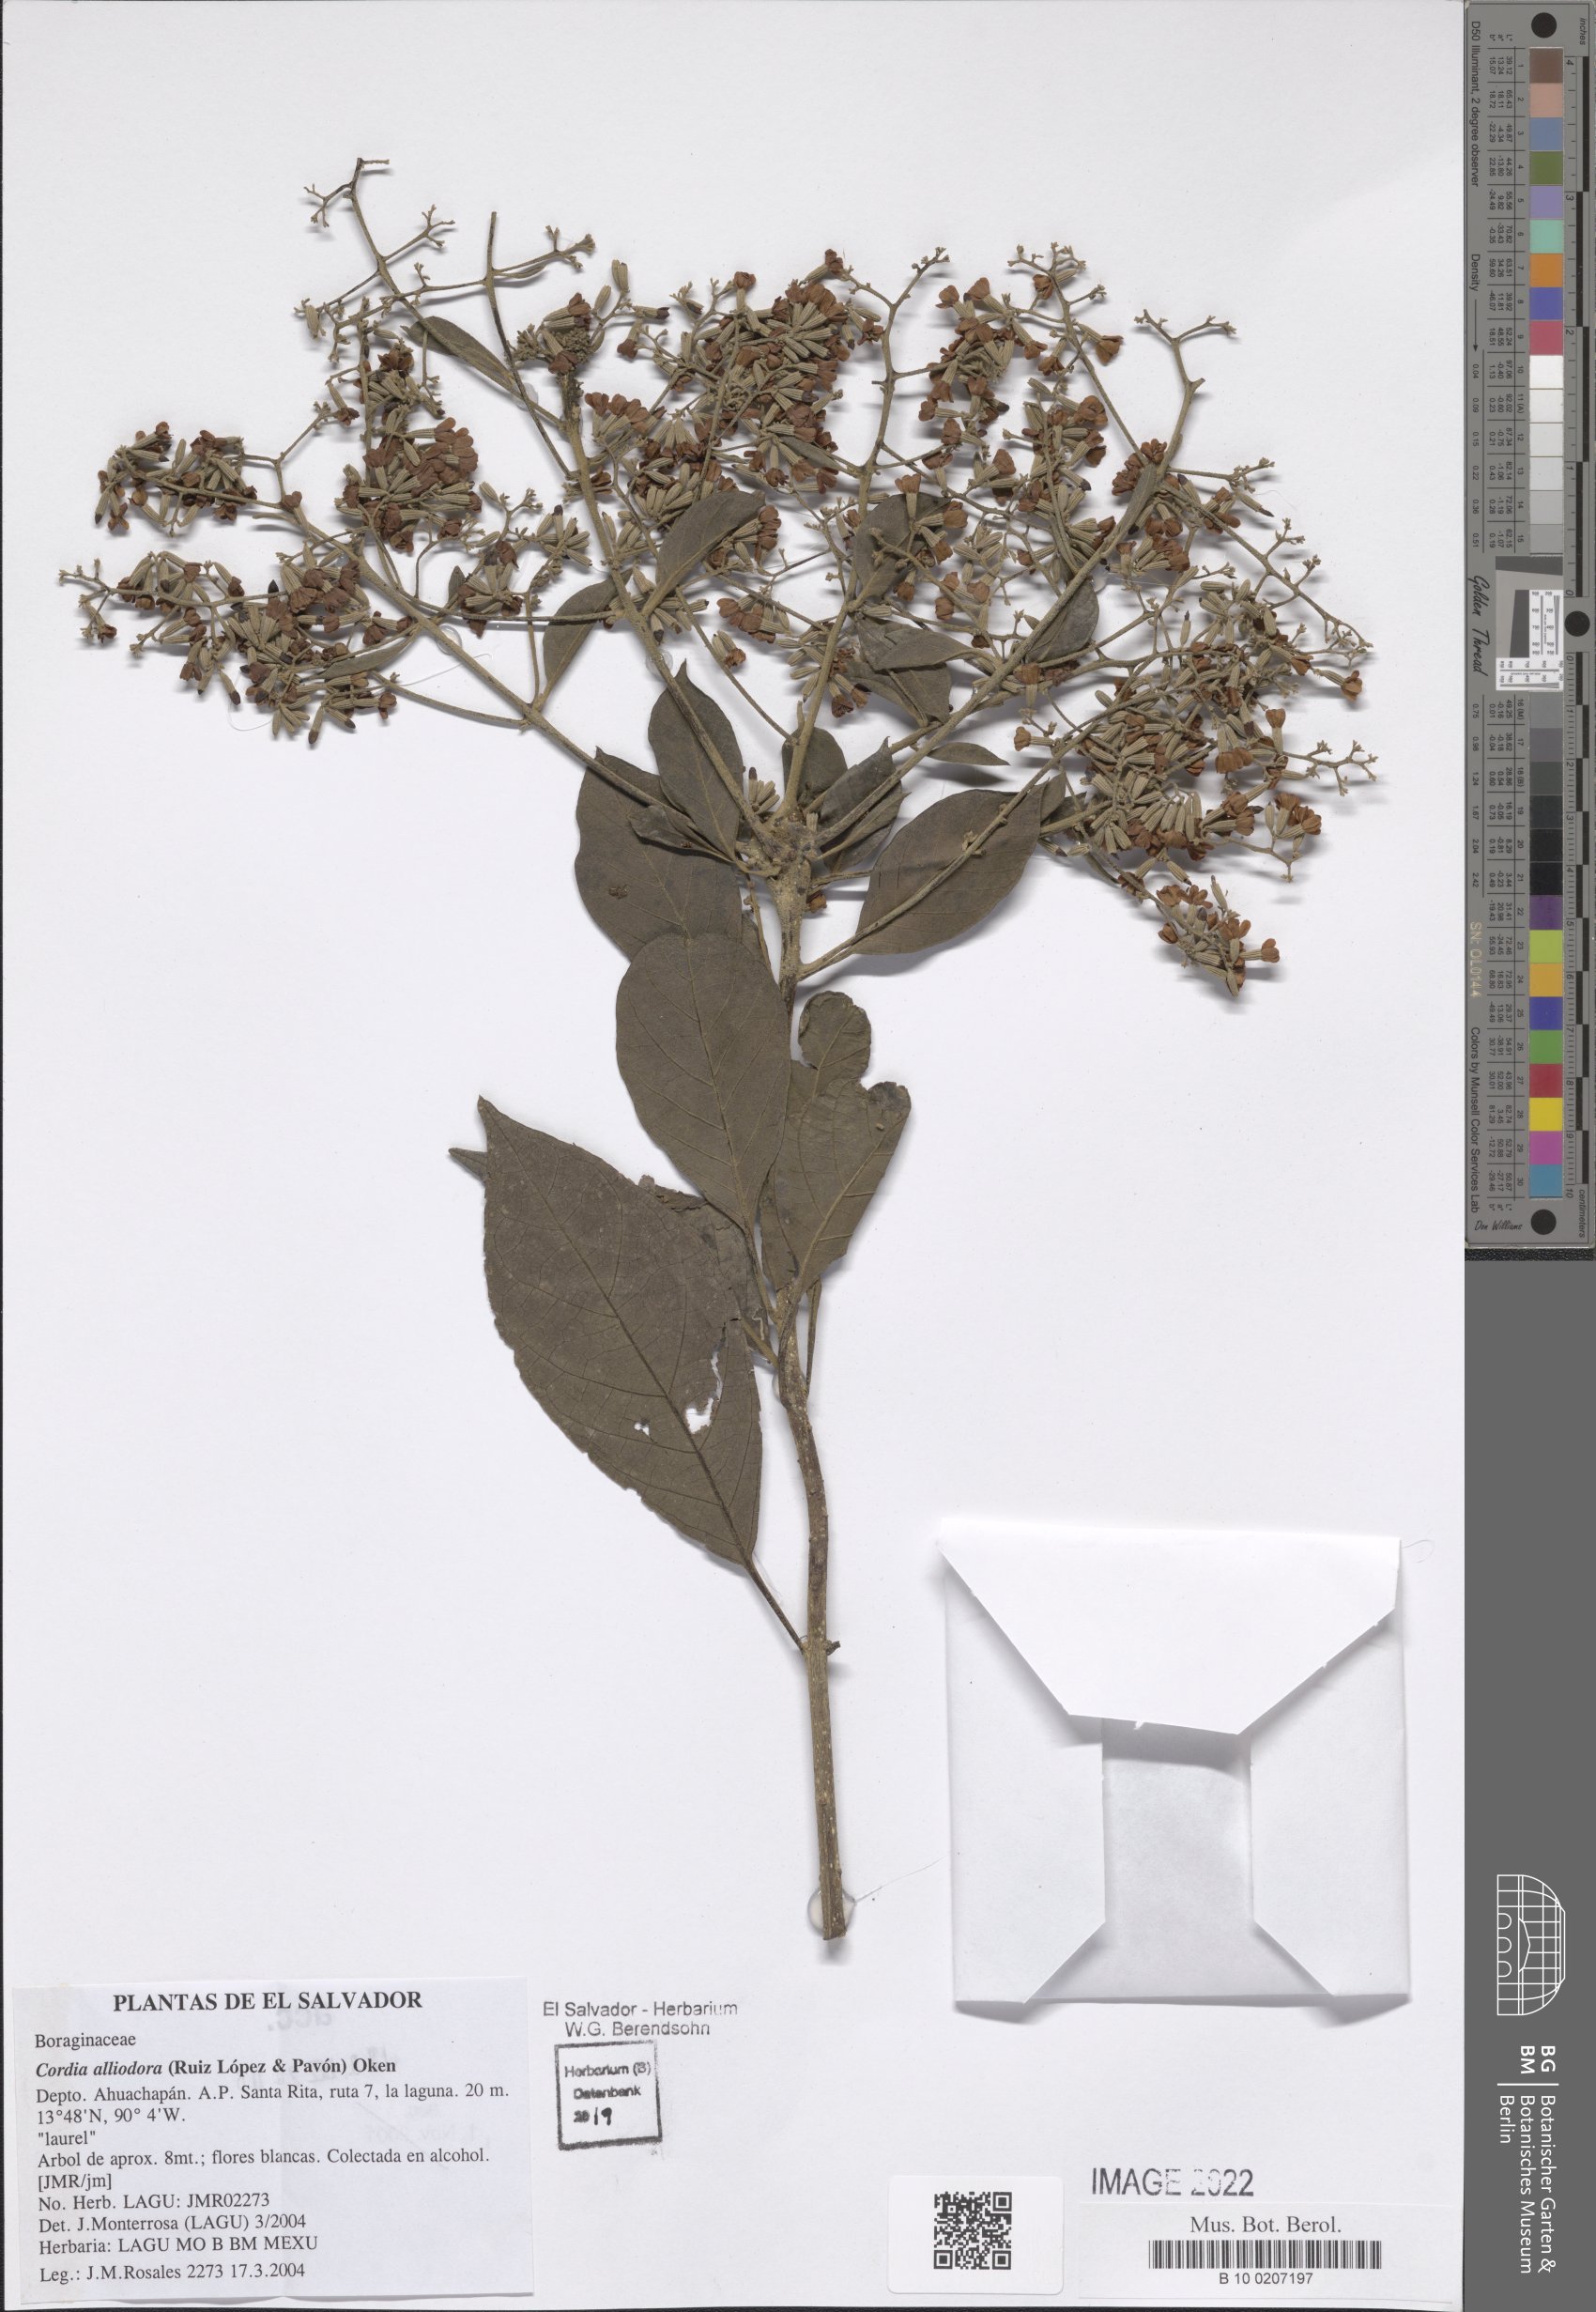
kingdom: Plantae
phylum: Tracheophyta
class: Magnoliopsida
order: Boraginales
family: Cordiaceae
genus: Cordia
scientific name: Cordia alliodora
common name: Spanish elm
